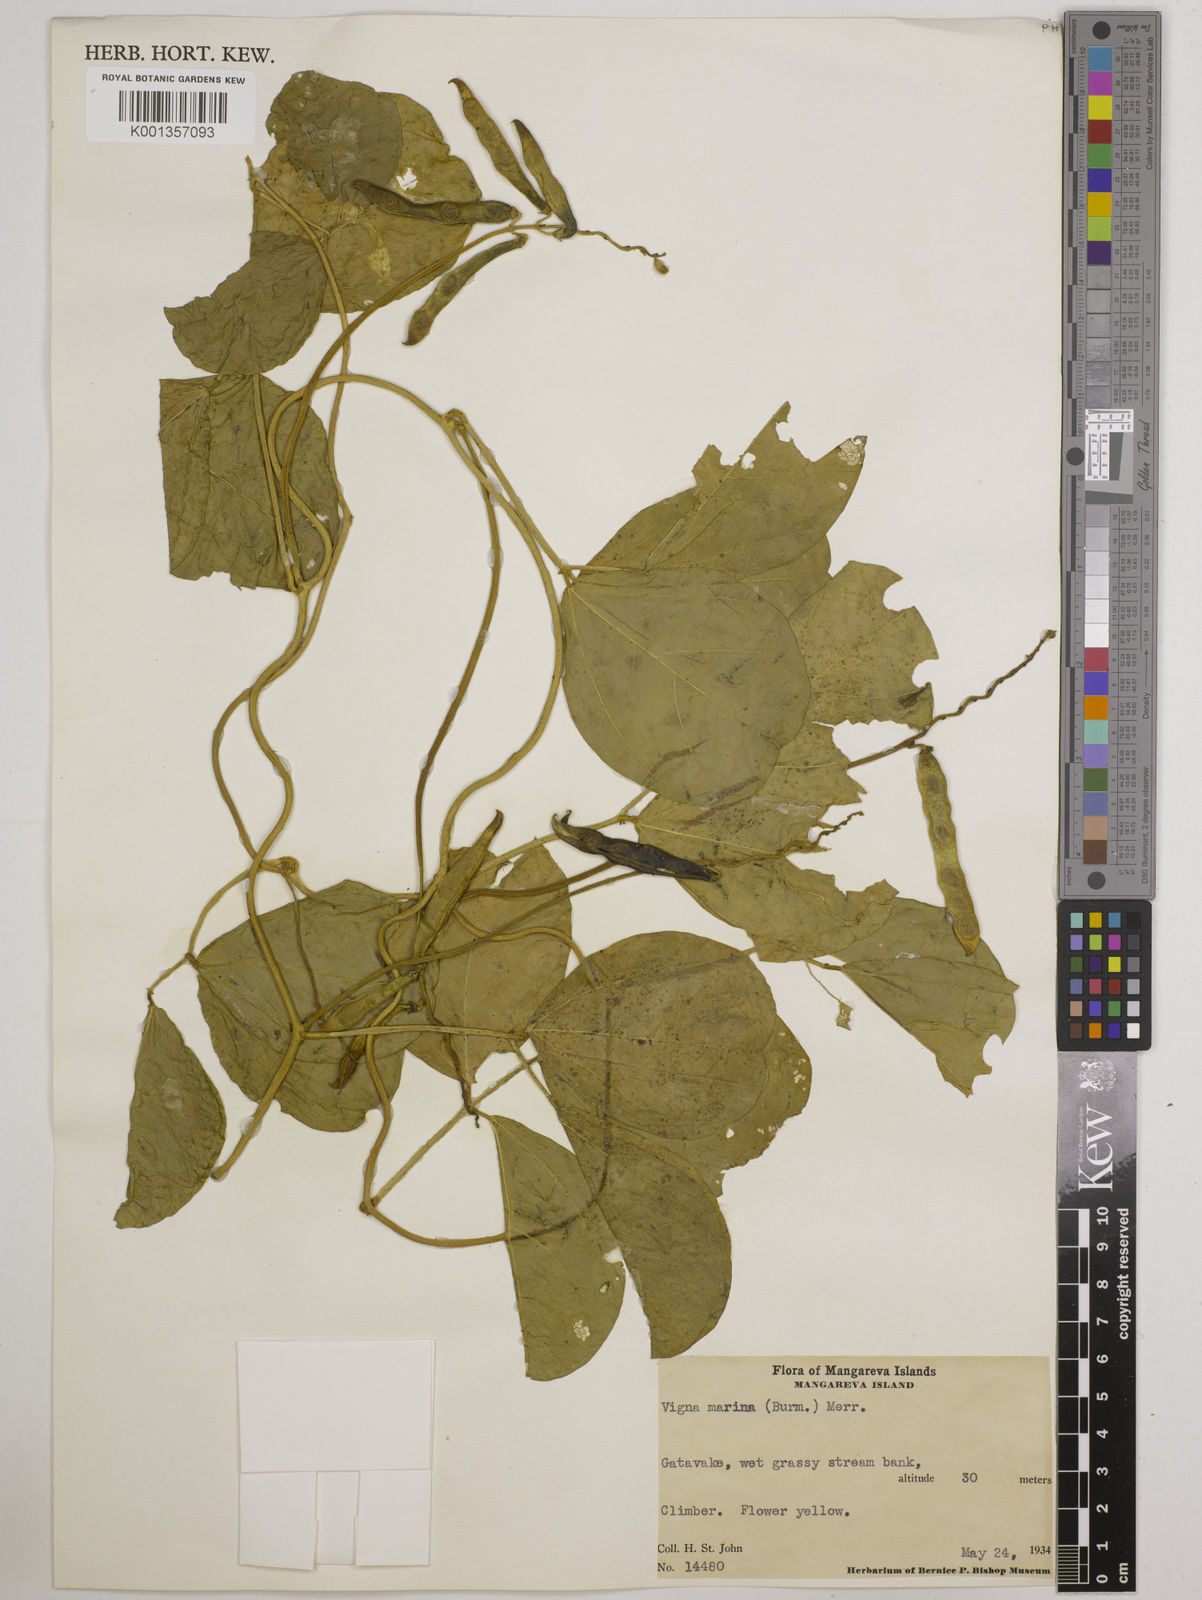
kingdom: Plantae
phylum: Tracheophyta
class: Magnoliopsida
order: Fabales
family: Fabaceae
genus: Vigna
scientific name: Vigna marina
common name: Dune-bean
